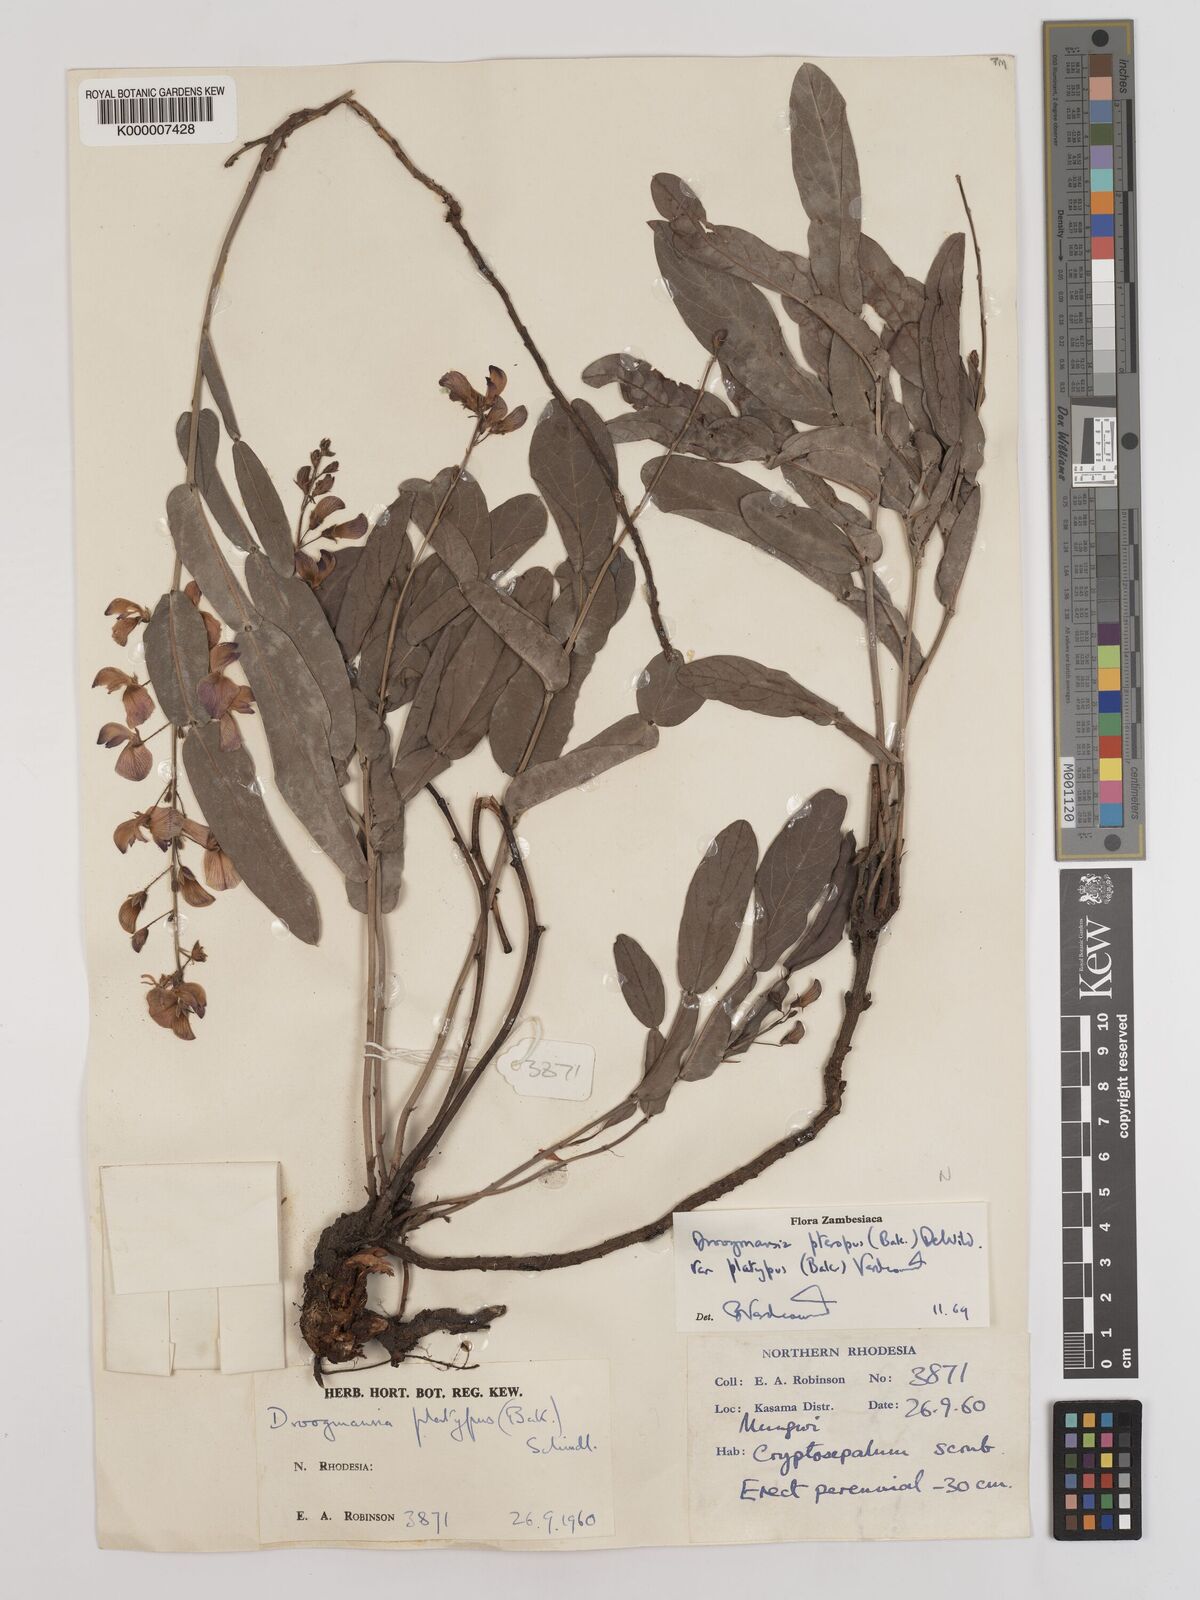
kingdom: Plantae
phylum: Tracheophyta
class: Magnoliopsida
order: Fabales
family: Fabaceae
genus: Droogmansia
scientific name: Droogmansia pteropus
